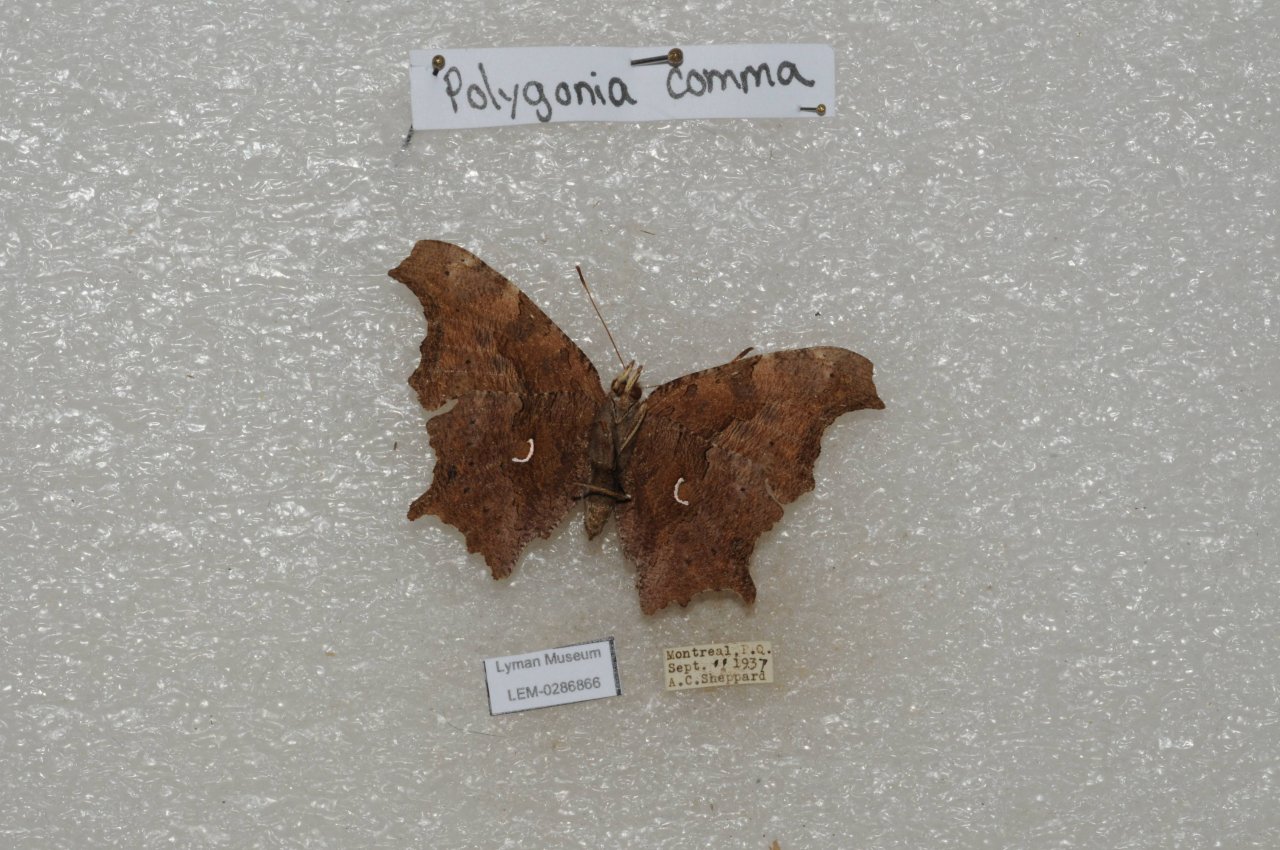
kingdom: Animalia
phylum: Arthropoda
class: Insecta
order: Lepidoptera
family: Nymphalidae
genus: Polygonia
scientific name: Polygonia comma
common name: Eastern Comma
